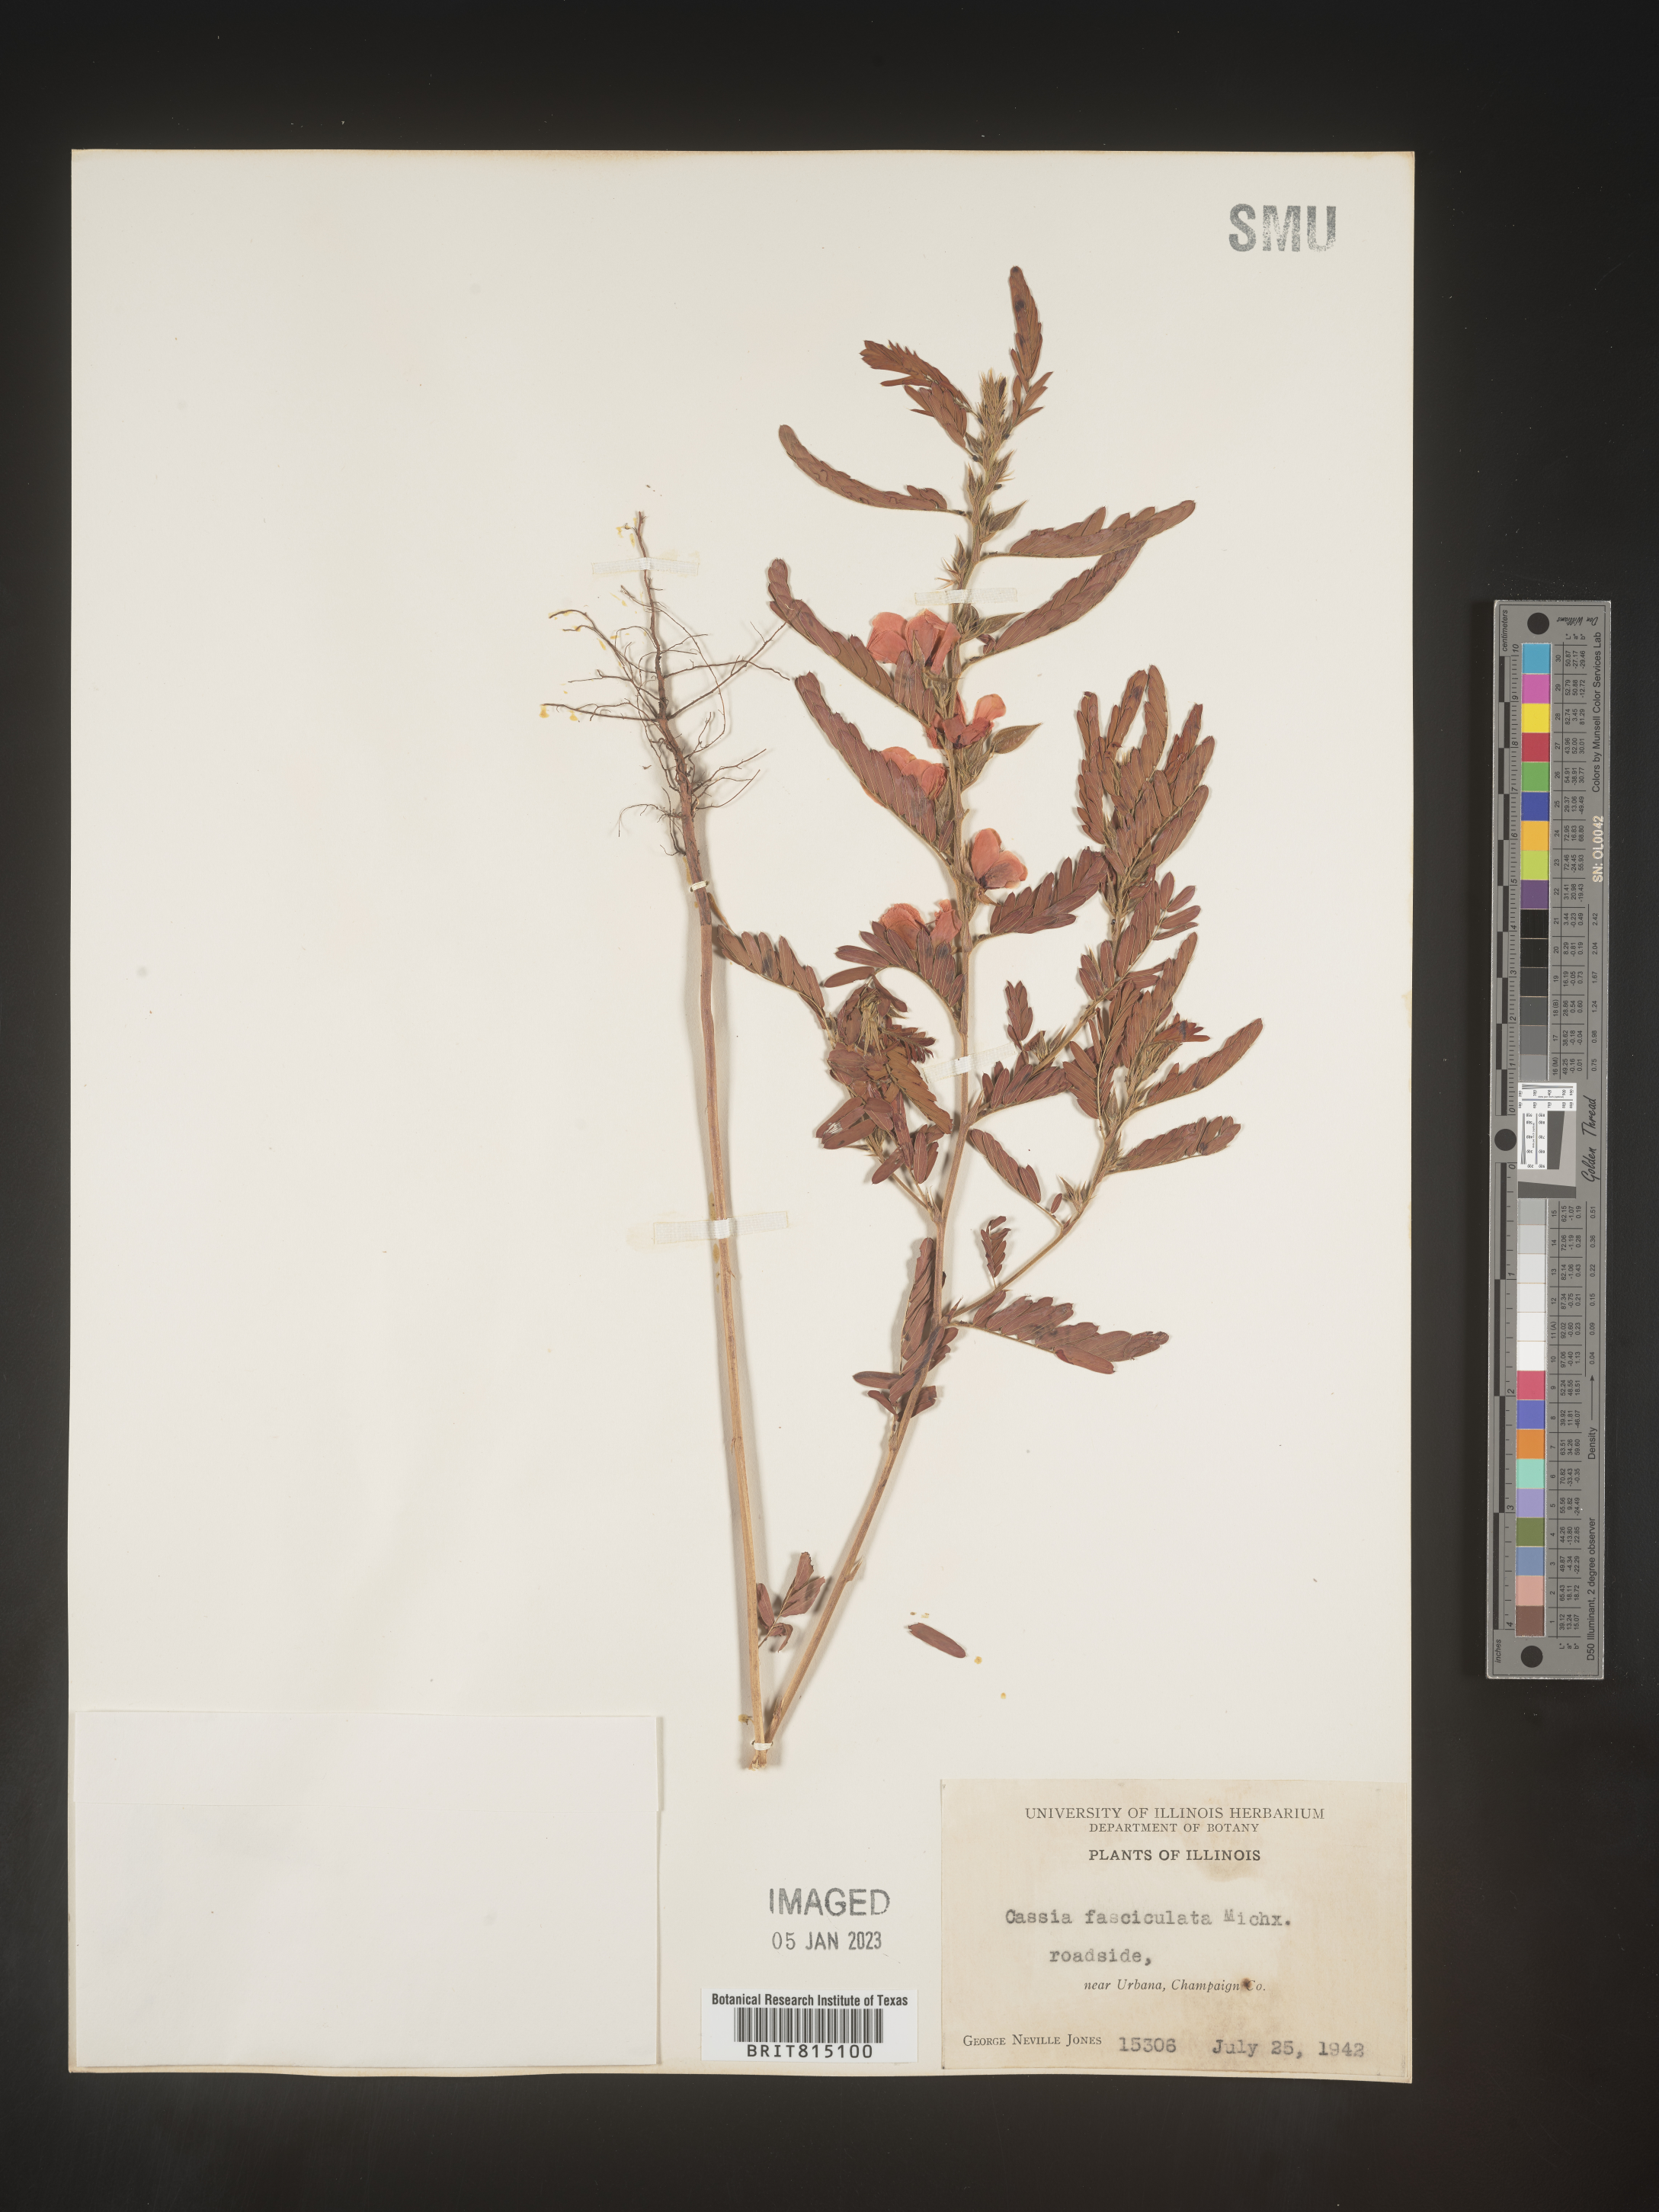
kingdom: Plantae
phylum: Tracheophyta
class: Magnoliopsida
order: Fabales
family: Fabaceae
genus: Chamaecrista
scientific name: Chamaecrista fasciculata
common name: Golden cassia
